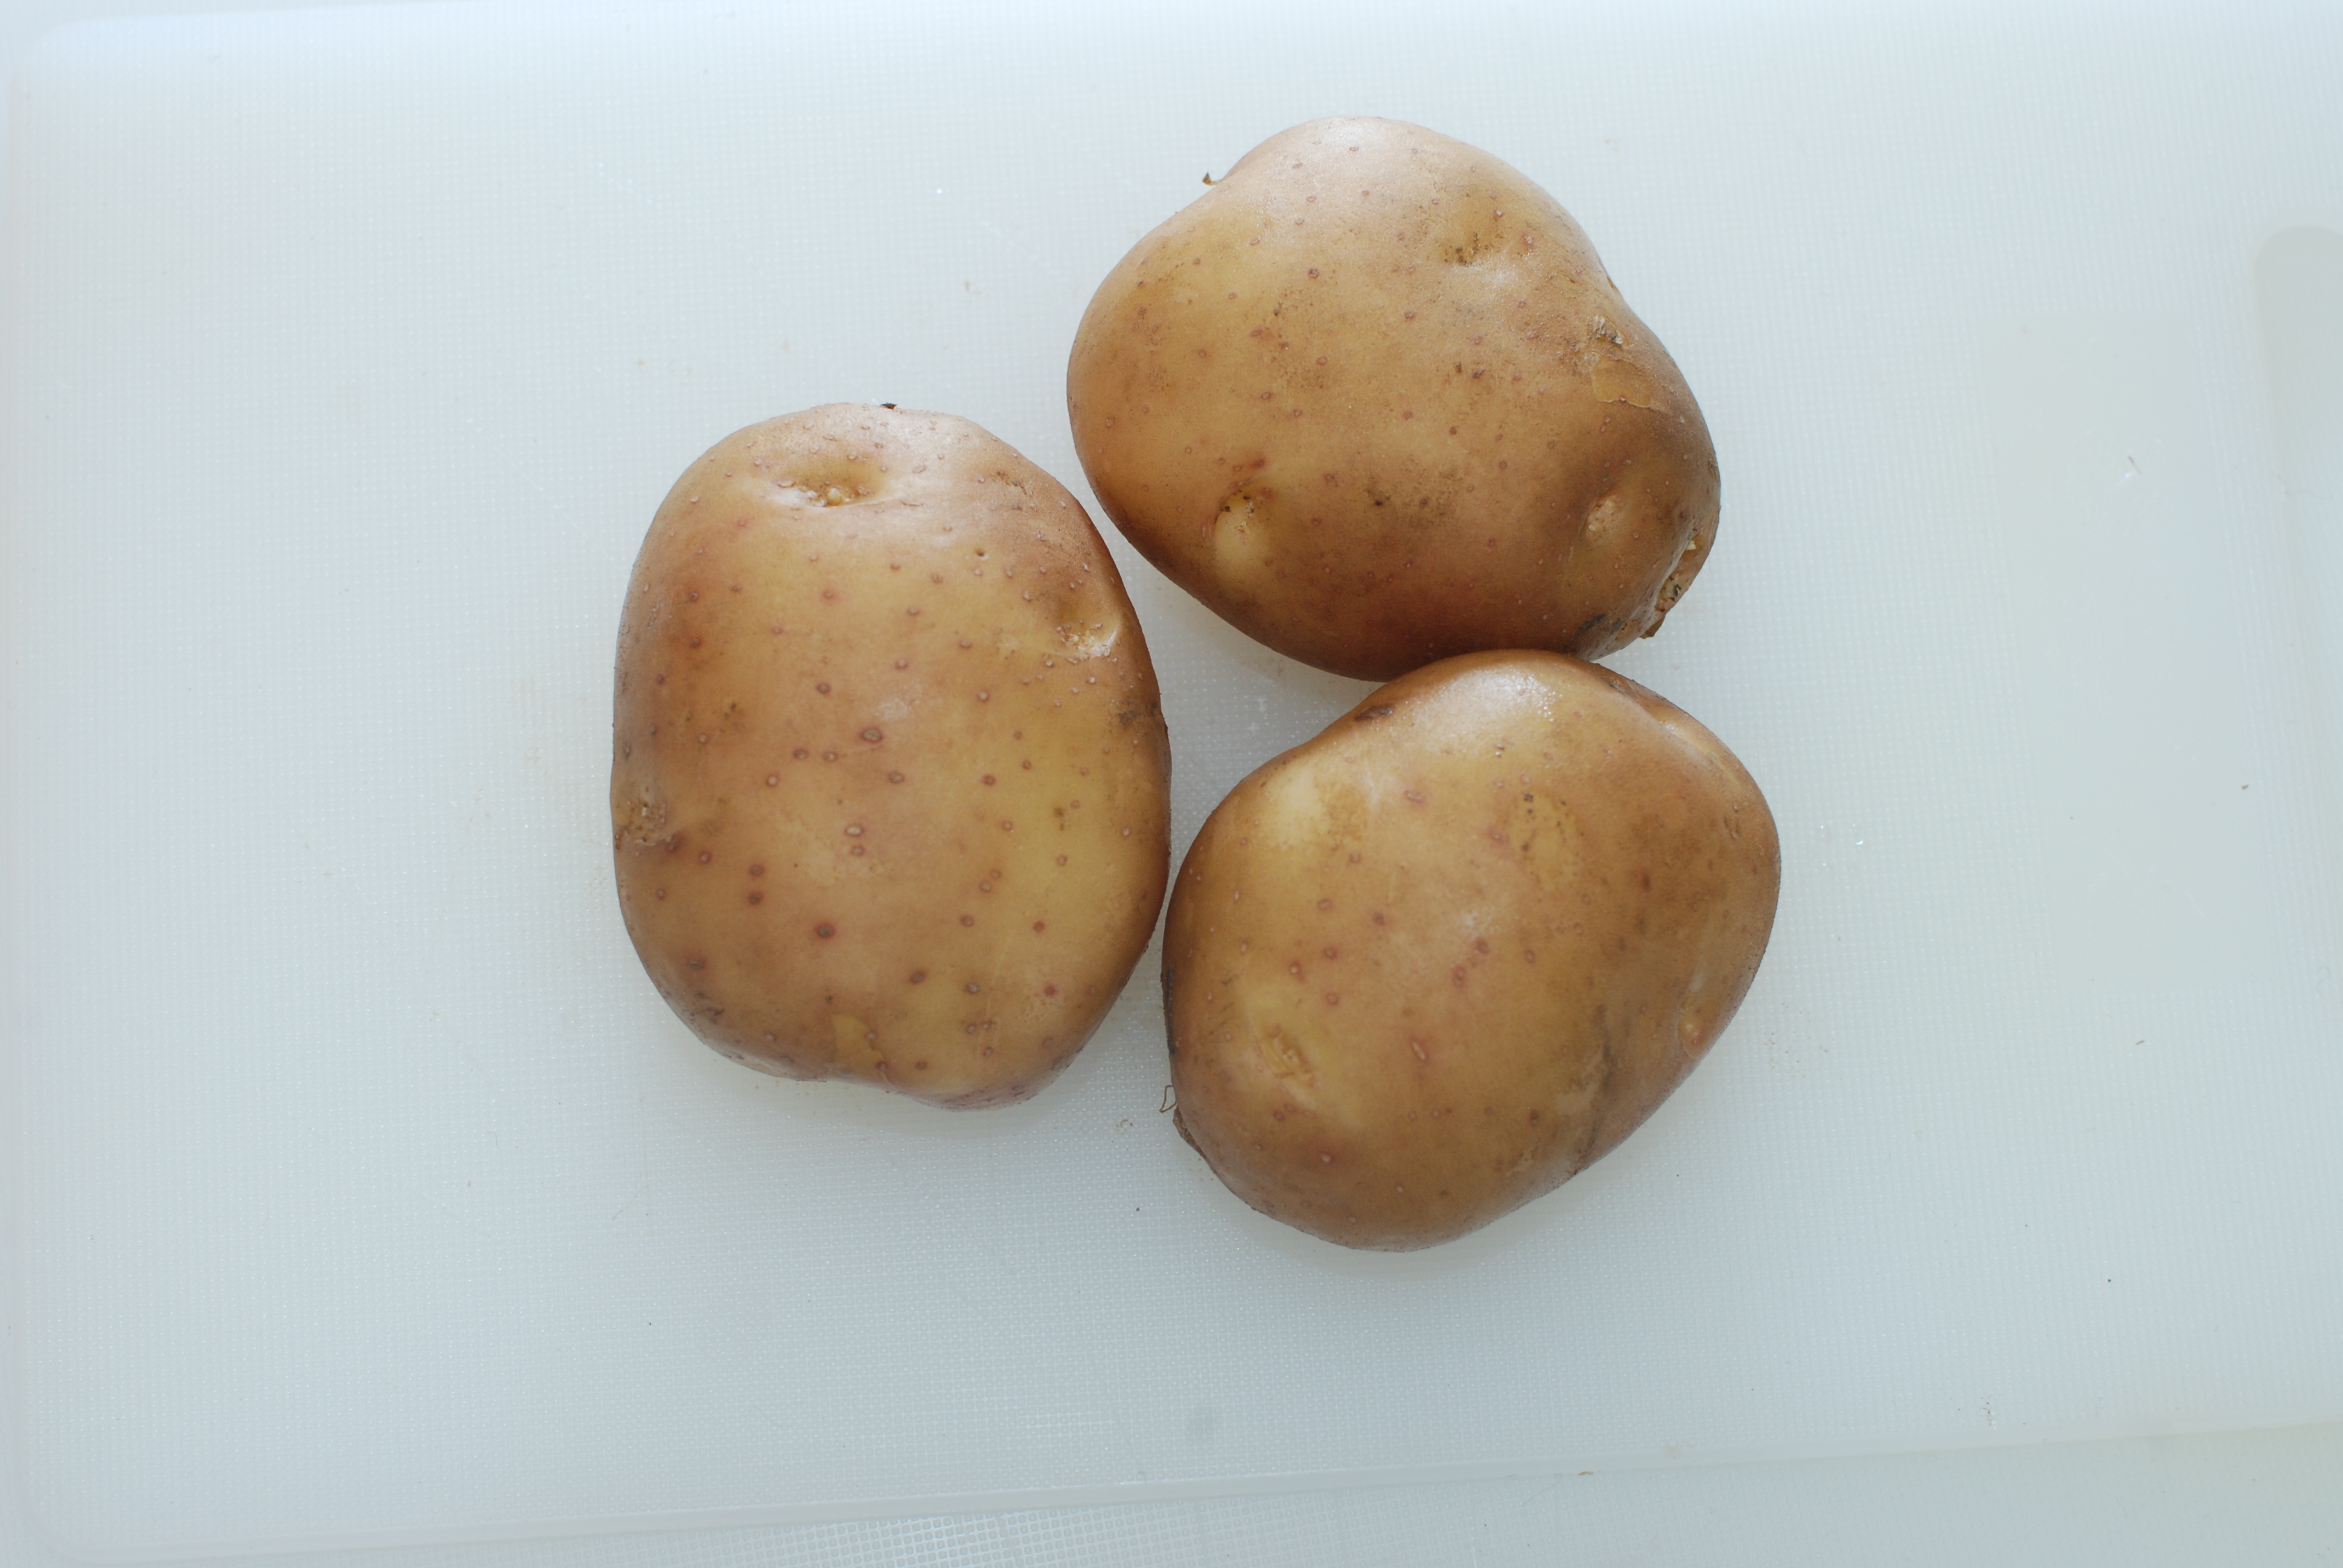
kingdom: Plantae
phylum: Tracheophyta
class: Magnoliopsida
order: Solanales
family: Solanaceae
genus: Solanum
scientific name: Solanum tuberosum
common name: Potato
